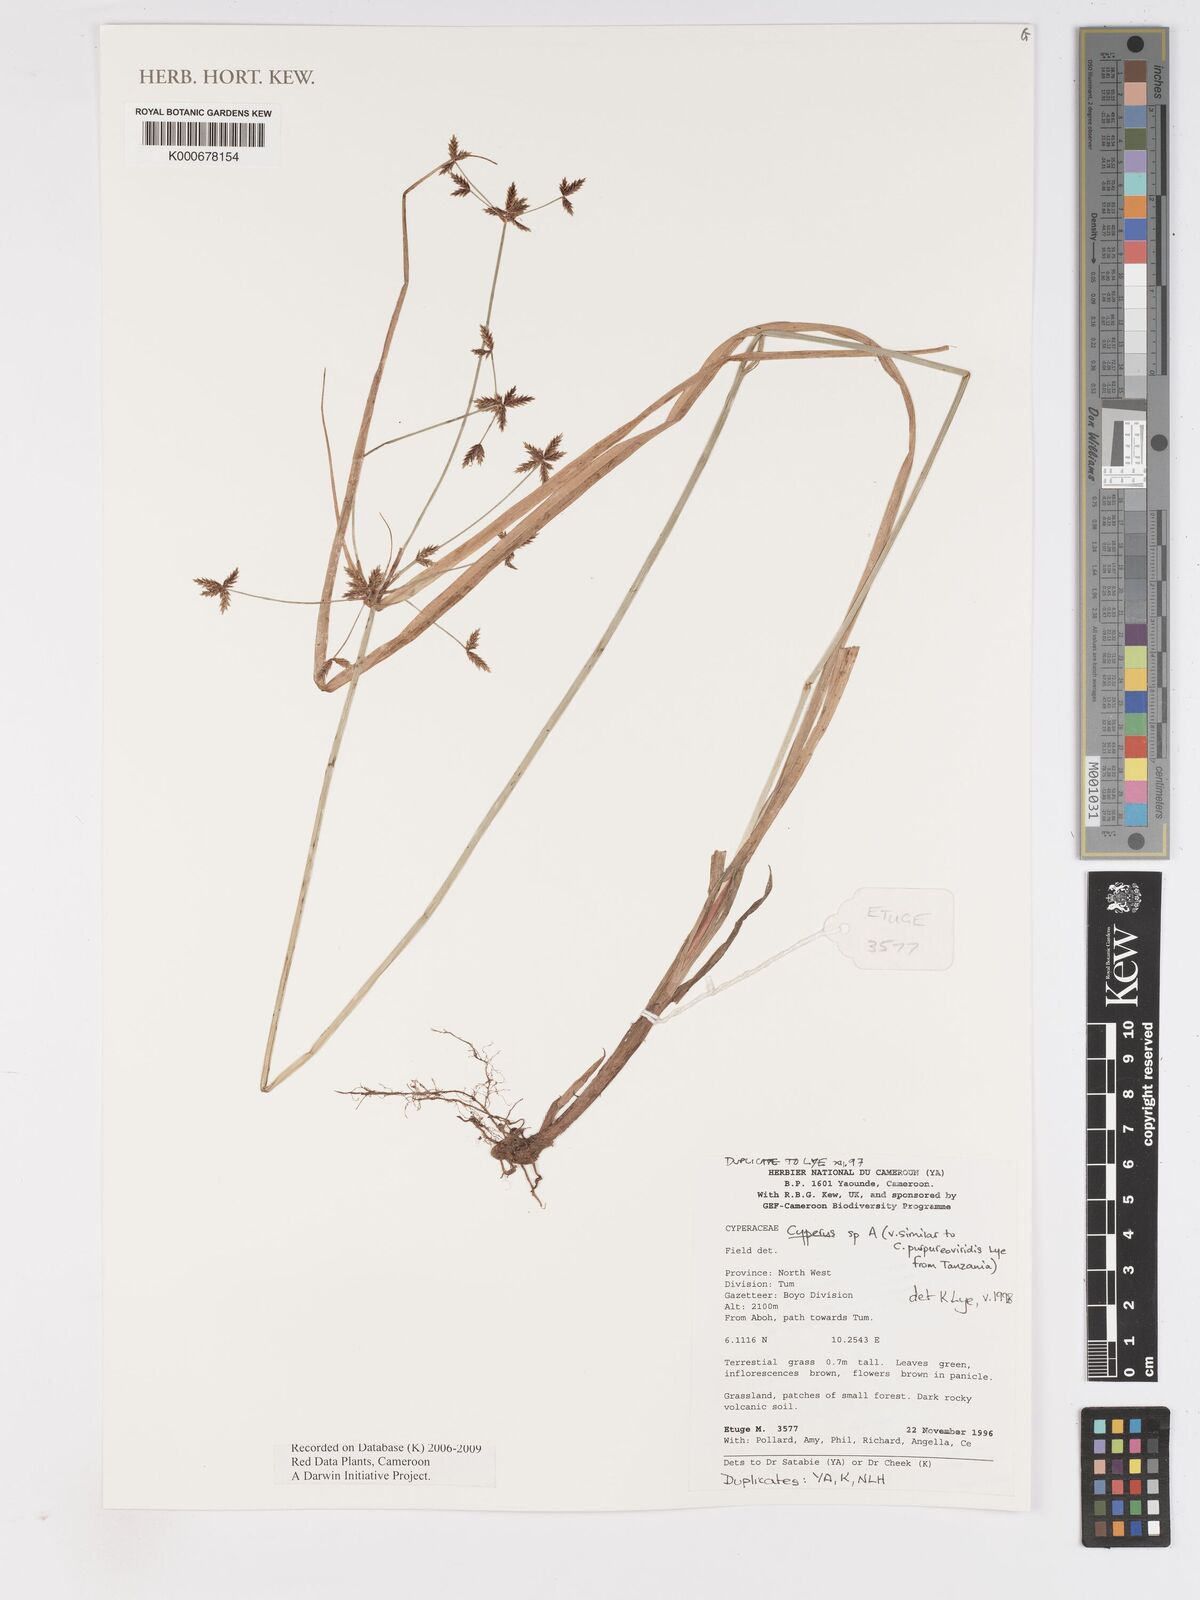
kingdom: Plantae
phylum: Tracheophyta
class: Liliopsida
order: Poales
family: Cyperaceae
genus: Cyperus
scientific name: Cyperus
